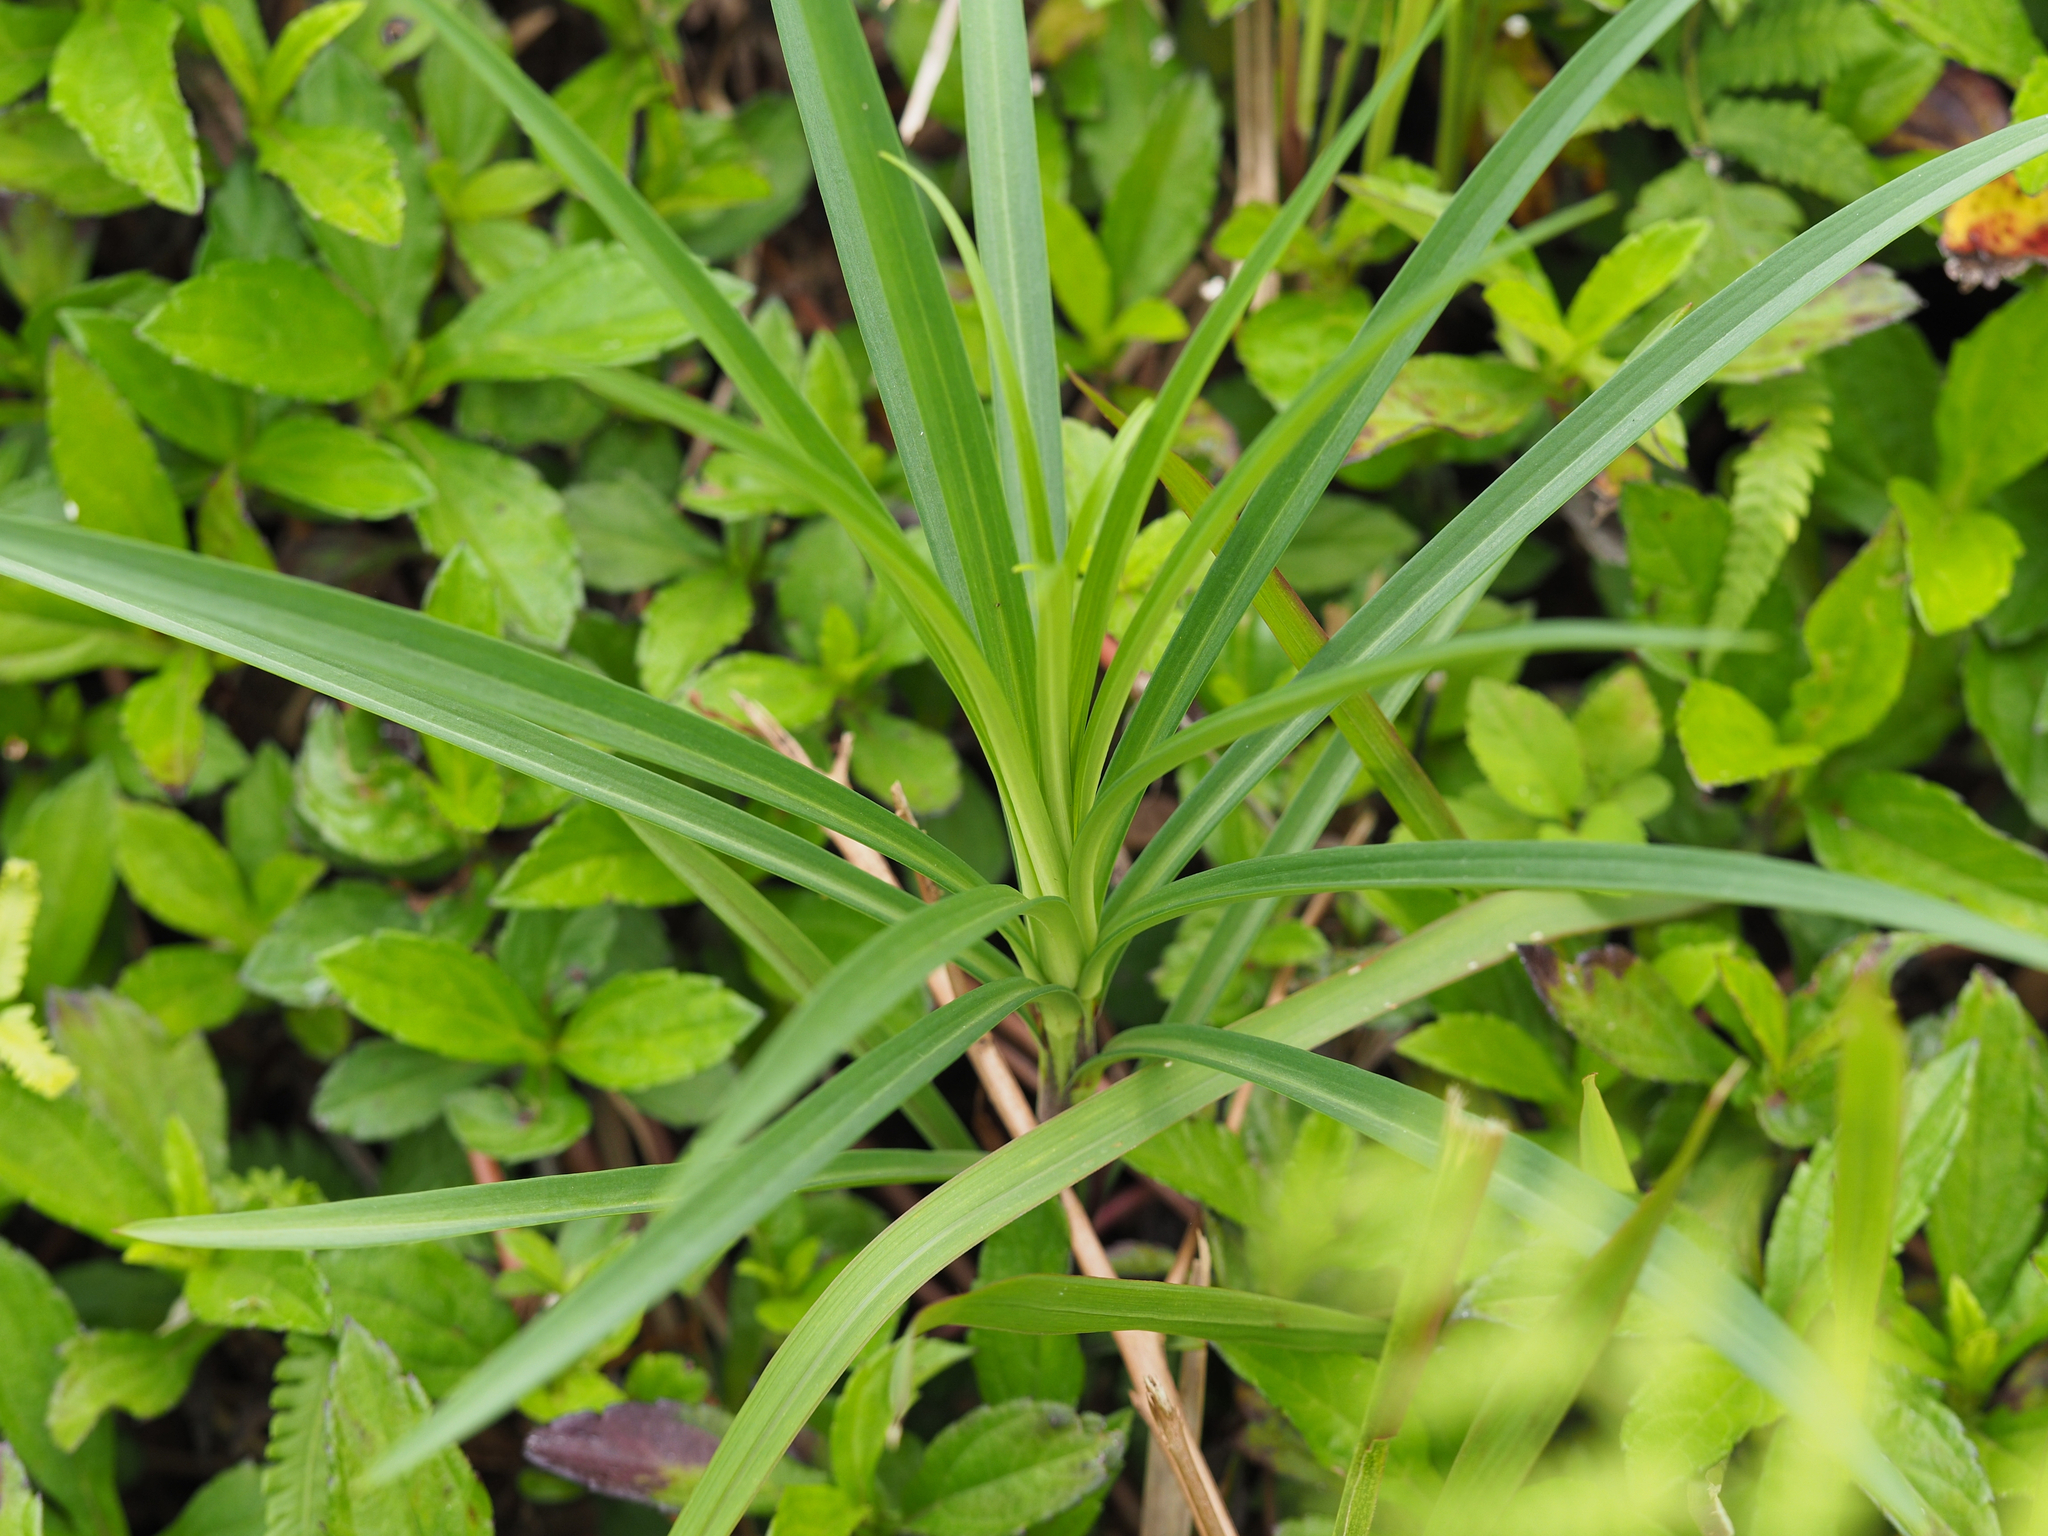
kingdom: Plantae
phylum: Tracheophyta
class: Liliopsida
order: Liliales
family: Liliaceae
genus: Lilium
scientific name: Lilium formosanum
